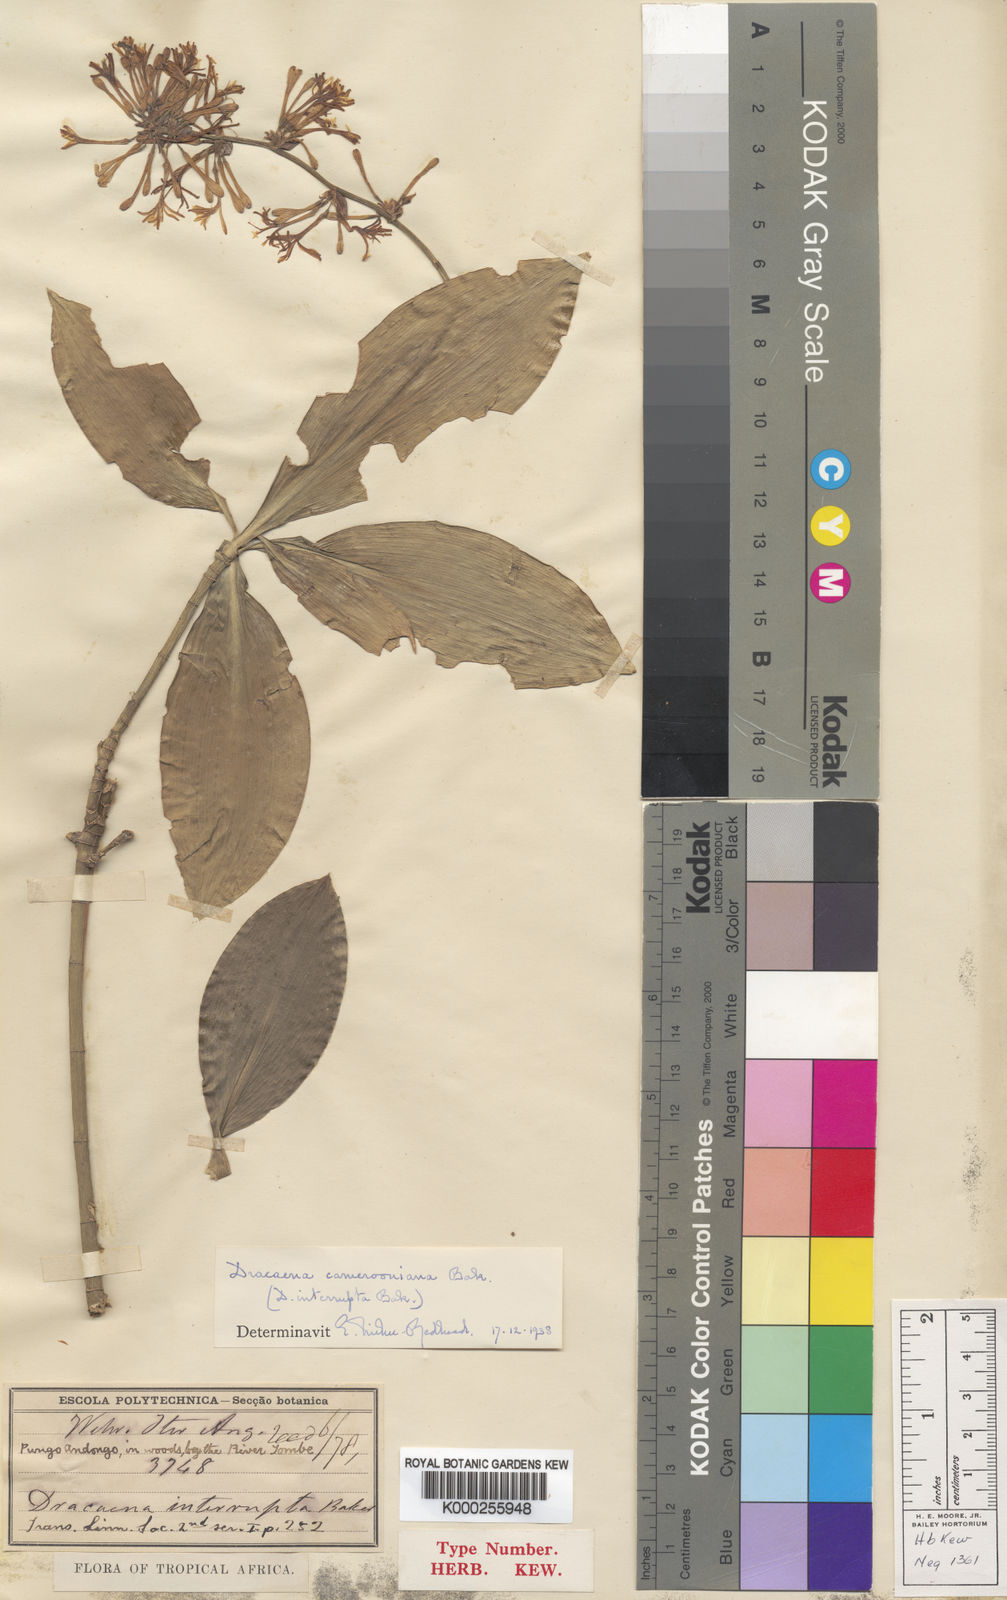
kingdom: Plantae
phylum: Tracheophyta
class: Liliopsida
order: Asparagales
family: Asparagaceae
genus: Dracaena
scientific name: Dracaena camerooniana
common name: Dragon tree
